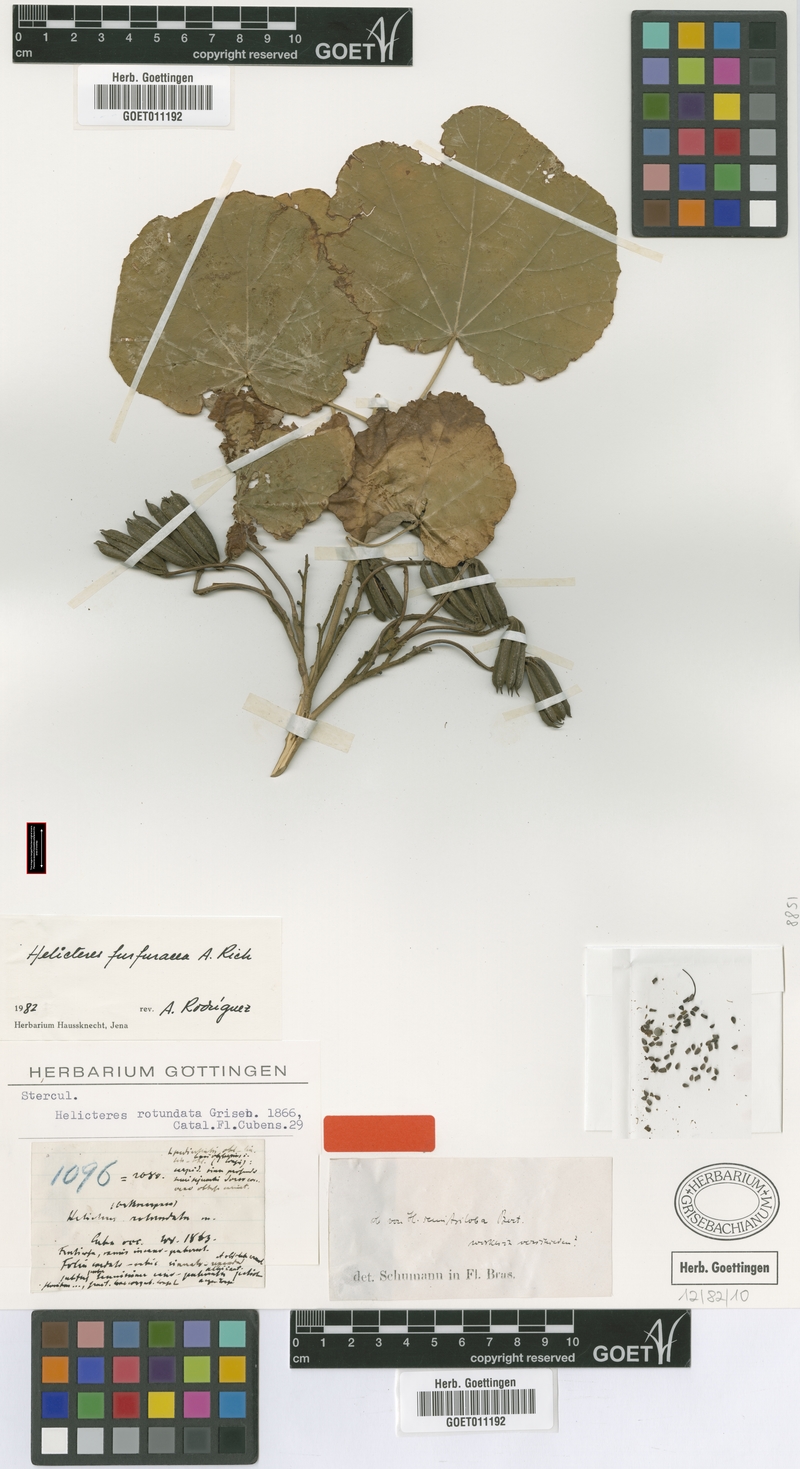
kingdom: Plantae
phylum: Tracheophyta
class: Magnoliopsida
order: Malvales
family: Malvaceae
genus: Helicteres
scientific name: Helicteres semitriloba
